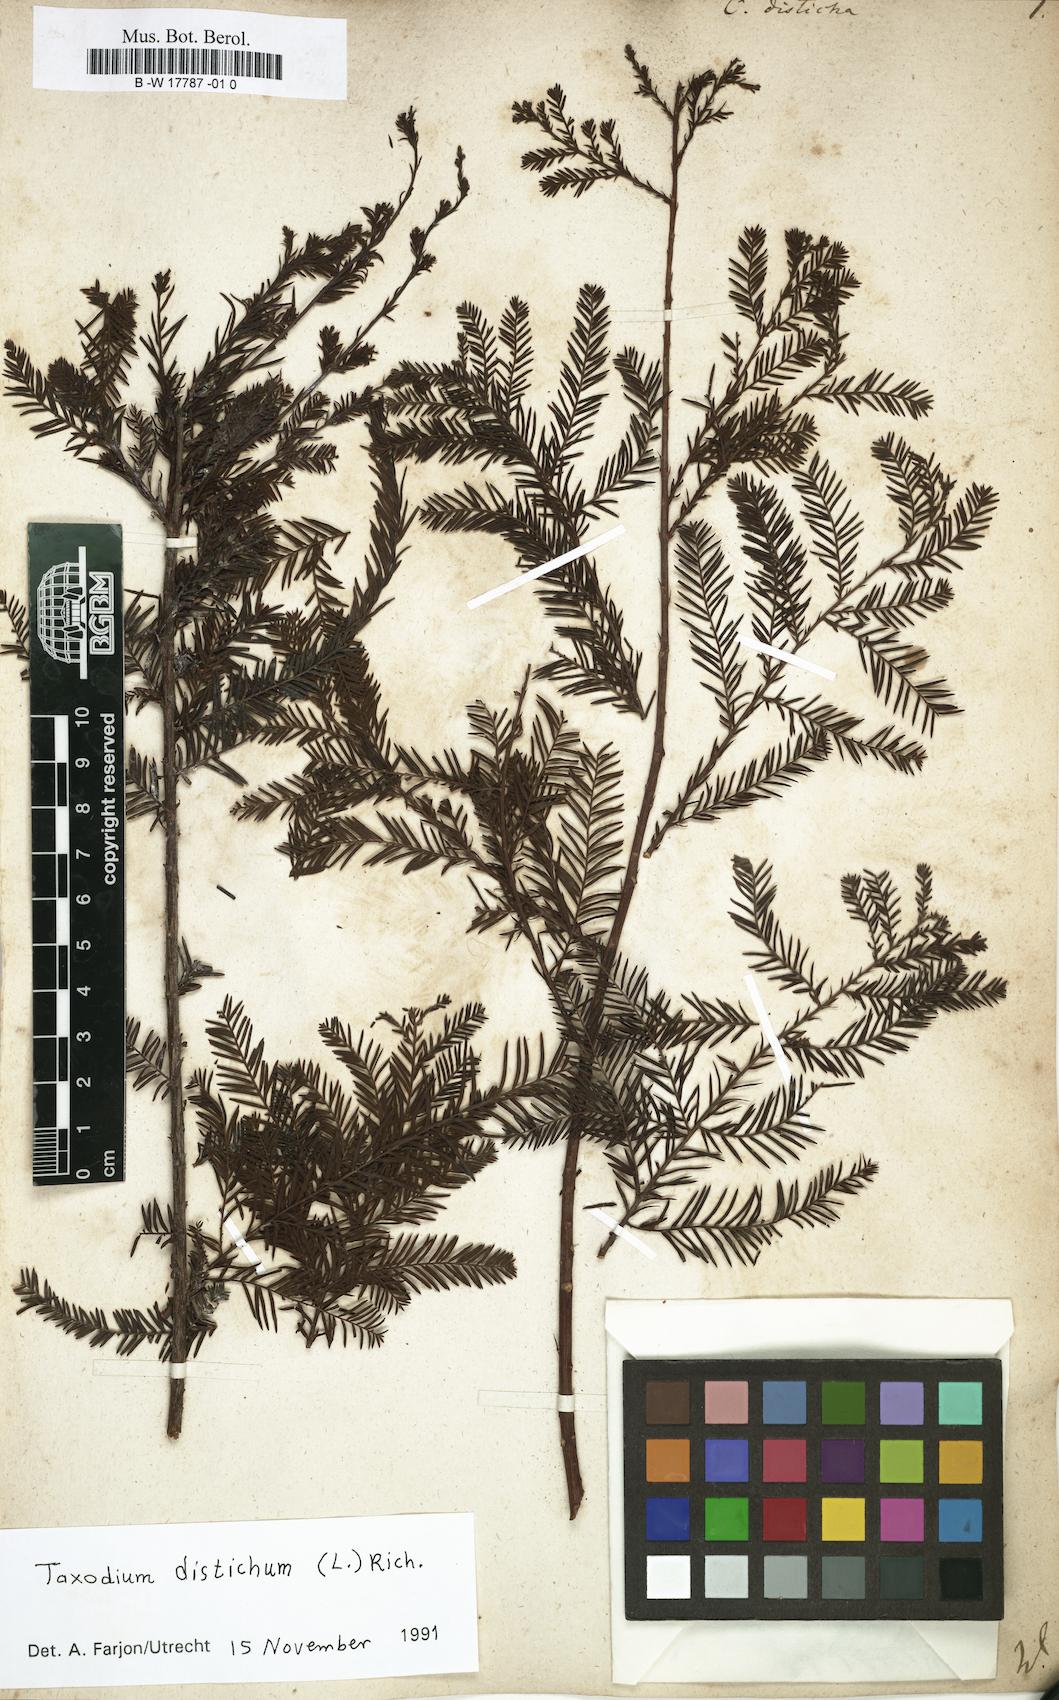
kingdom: Plantae
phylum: Tracheophyta
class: Pinopsida
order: Pinales
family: Cupressaceae
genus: Taxodium
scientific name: Taxodium distichum
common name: Bald cypress
